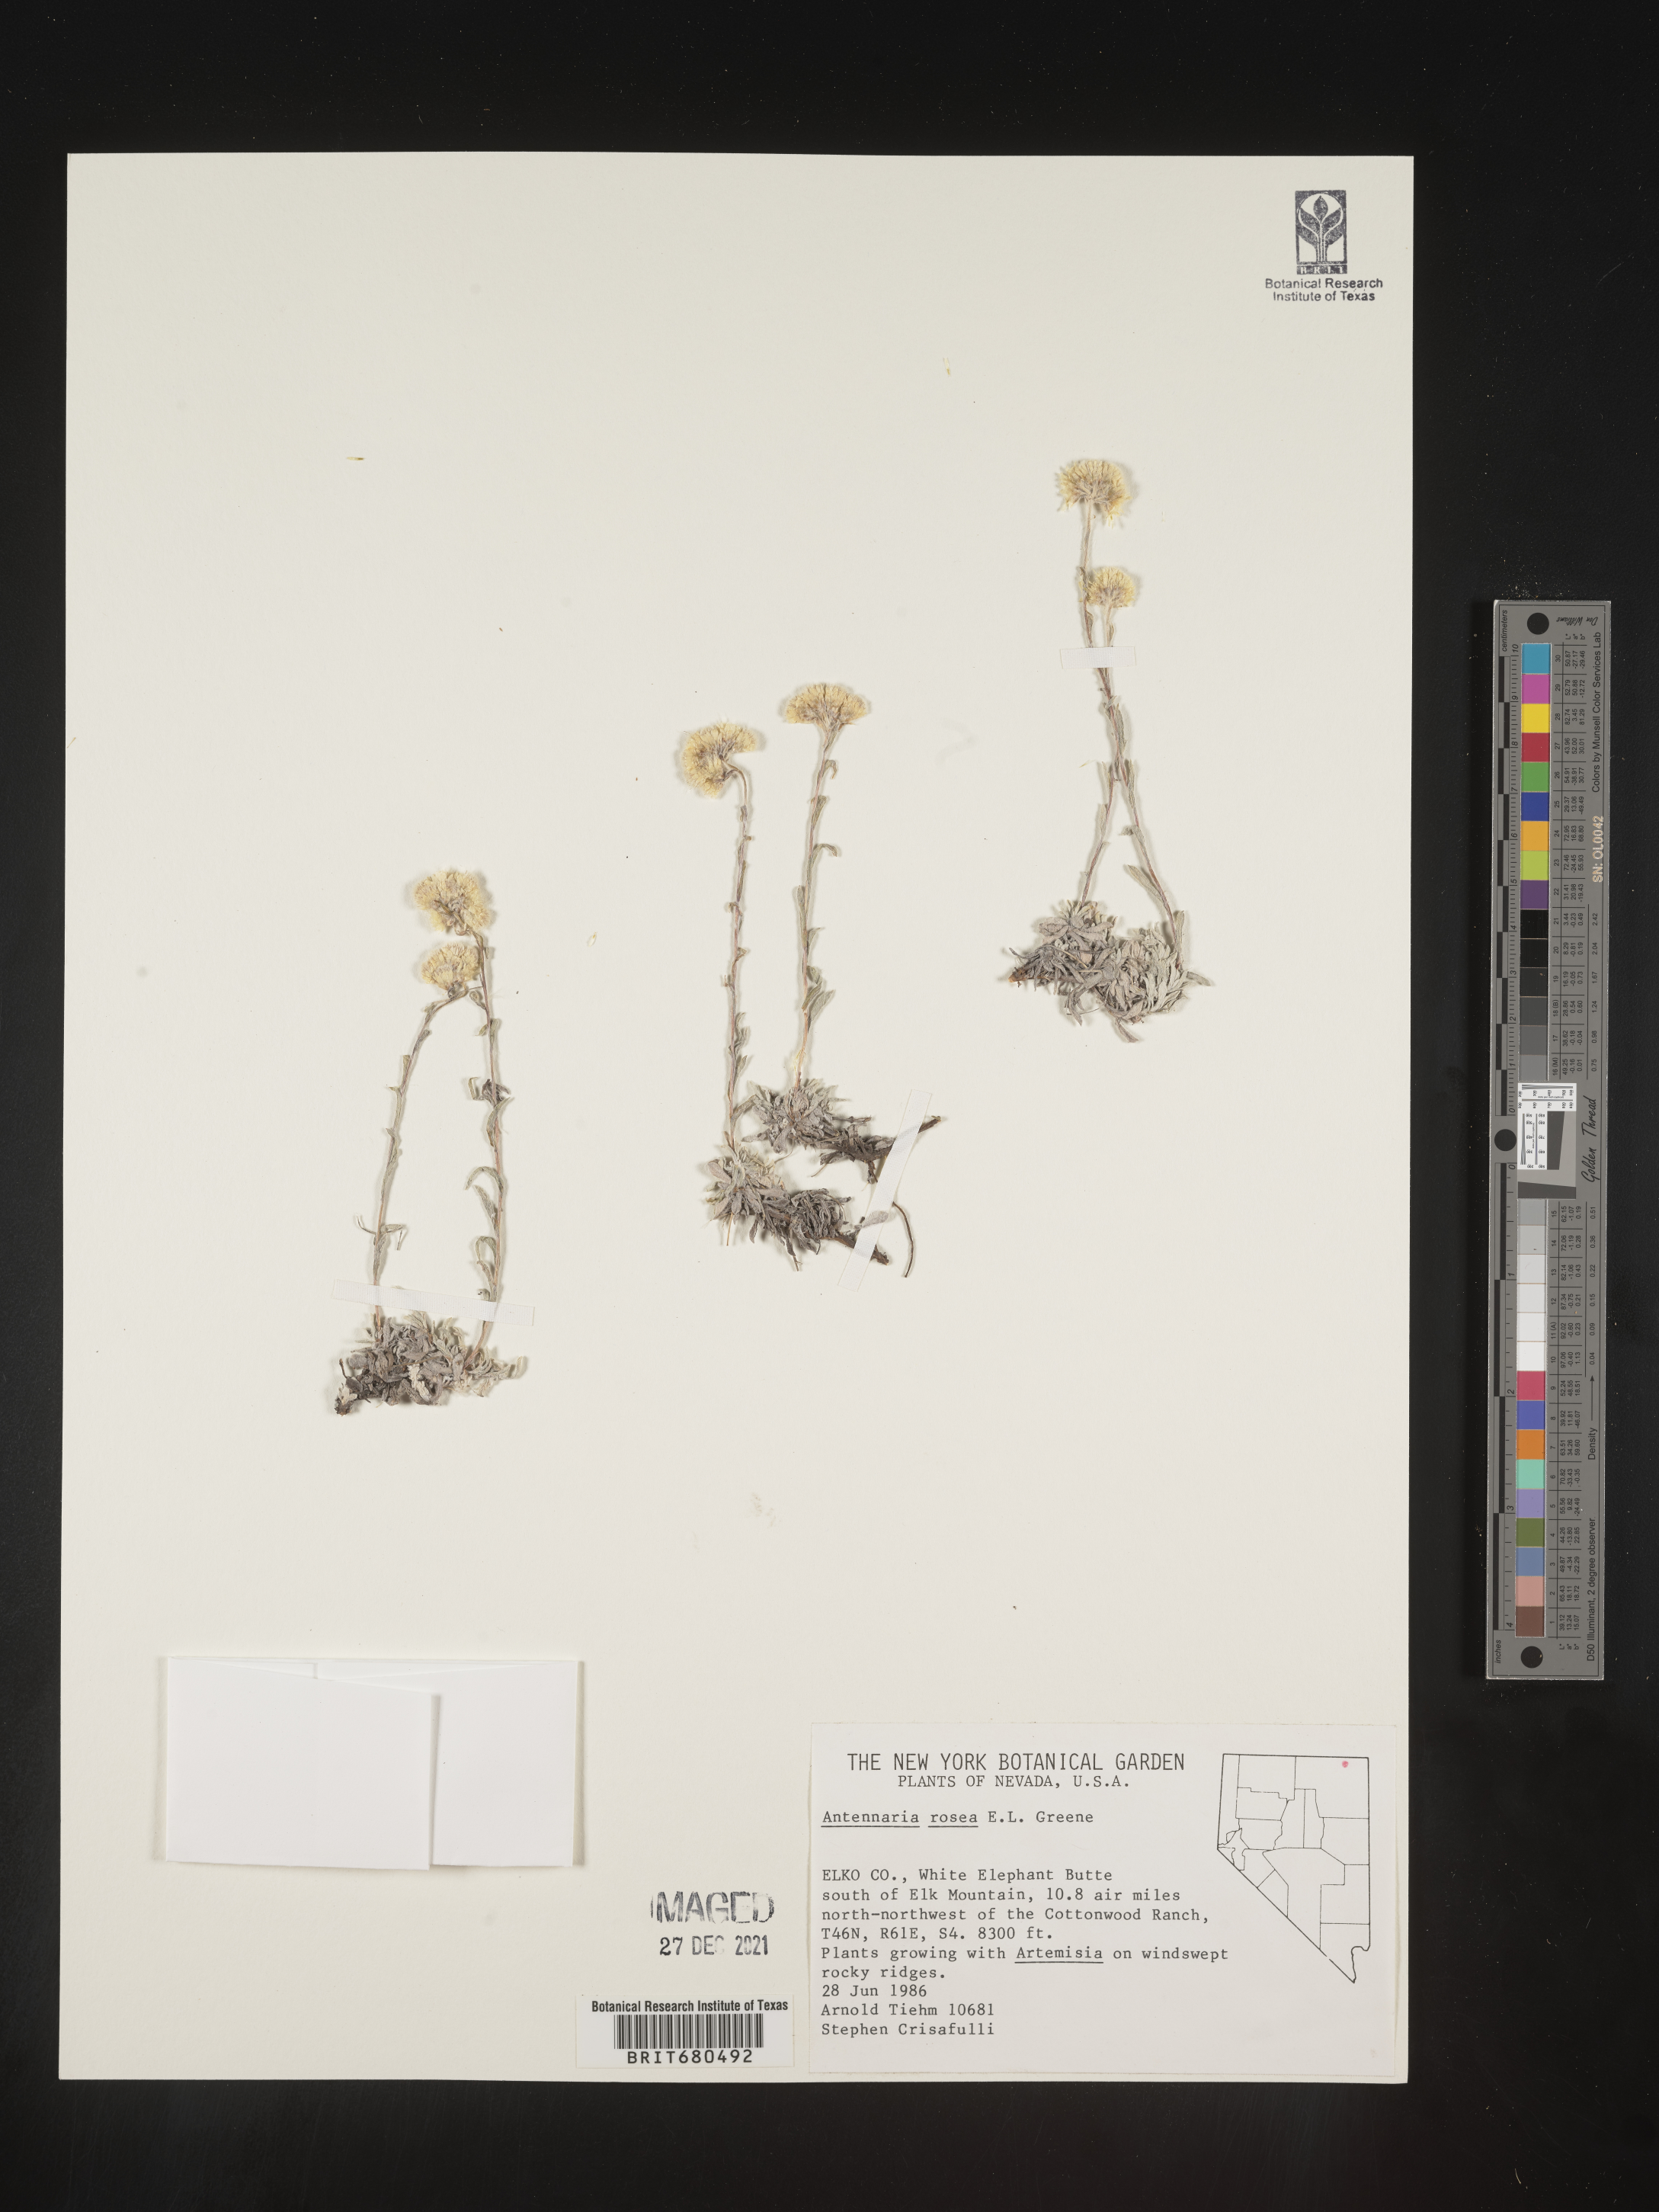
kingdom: Plantae
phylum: Tracheophyta
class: Magnoliopsida
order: Asterales
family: Asteraceae
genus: Antennaria
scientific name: Antennaria rosea
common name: Rosy pussytoes
